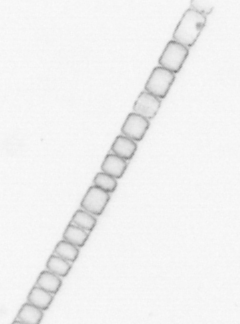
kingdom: Chromista
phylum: Ochrophyta
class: Bacillariophyceae
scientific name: Bacillariophyceae
